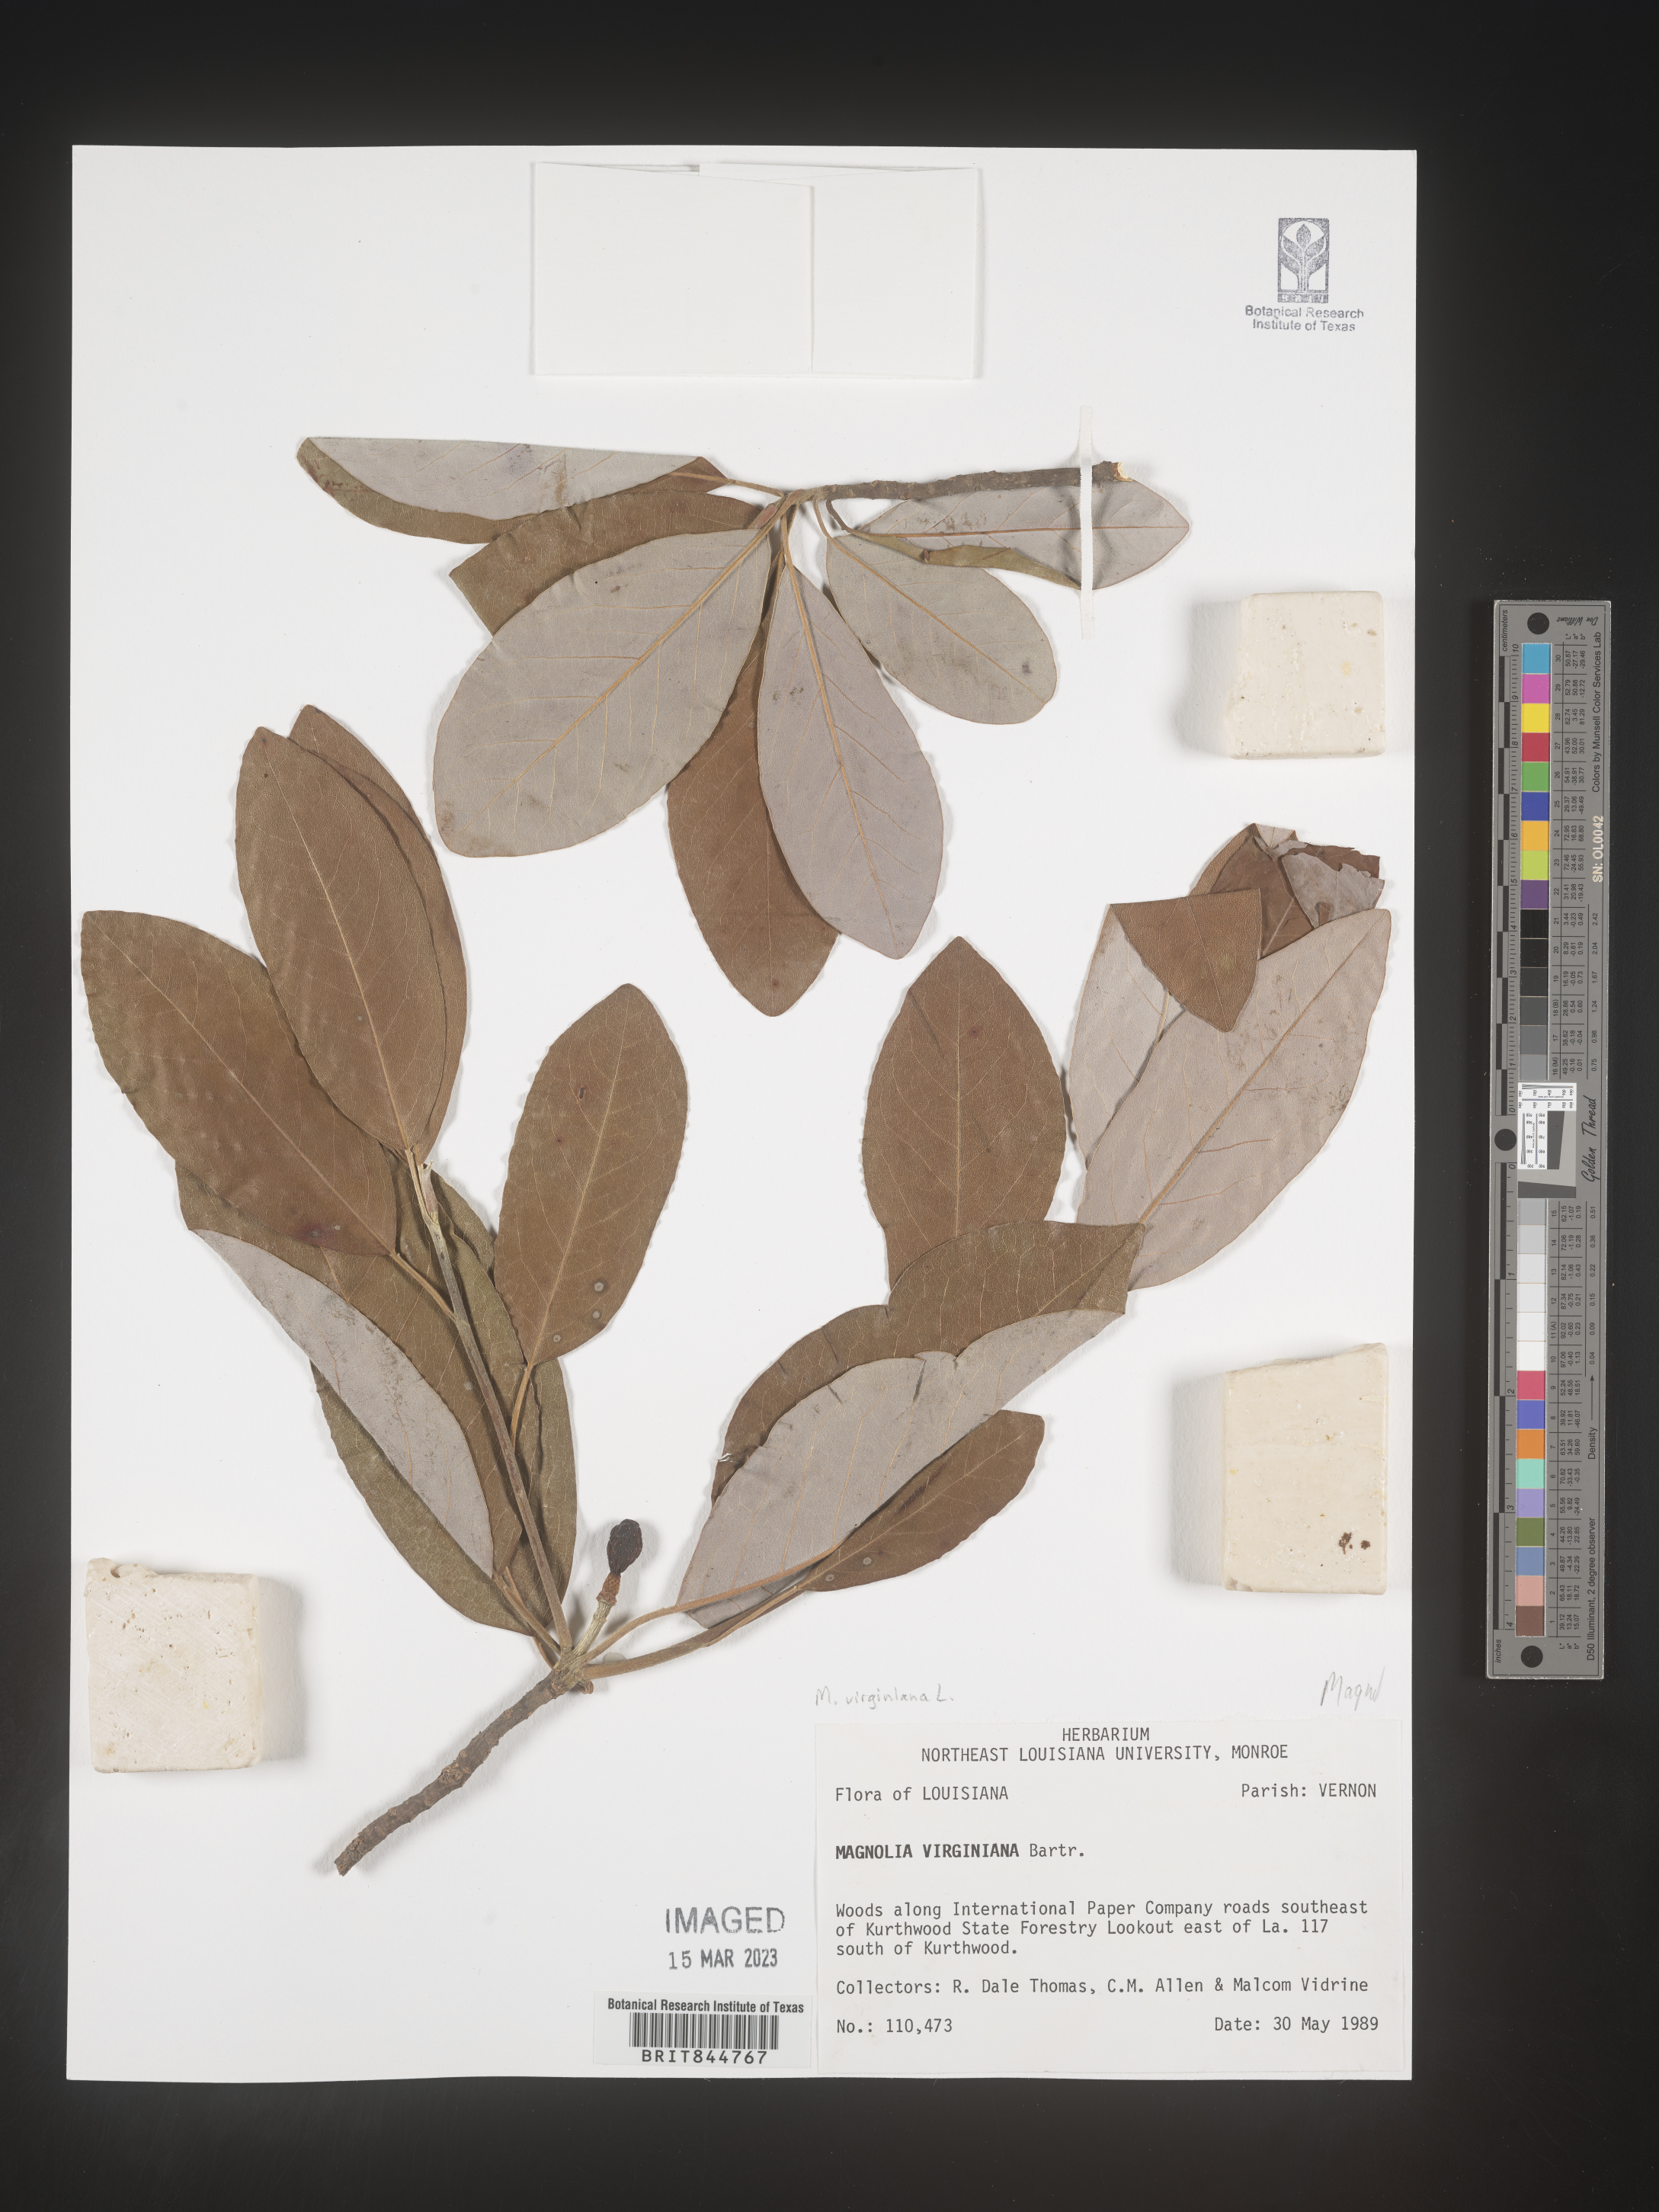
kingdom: Plantae
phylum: Tracheophyta
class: Magnoliopsida
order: Magnoliales
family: Magnoliaceae
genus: Magnolia
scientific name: Magnolia virginiana
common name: Swamp bay
